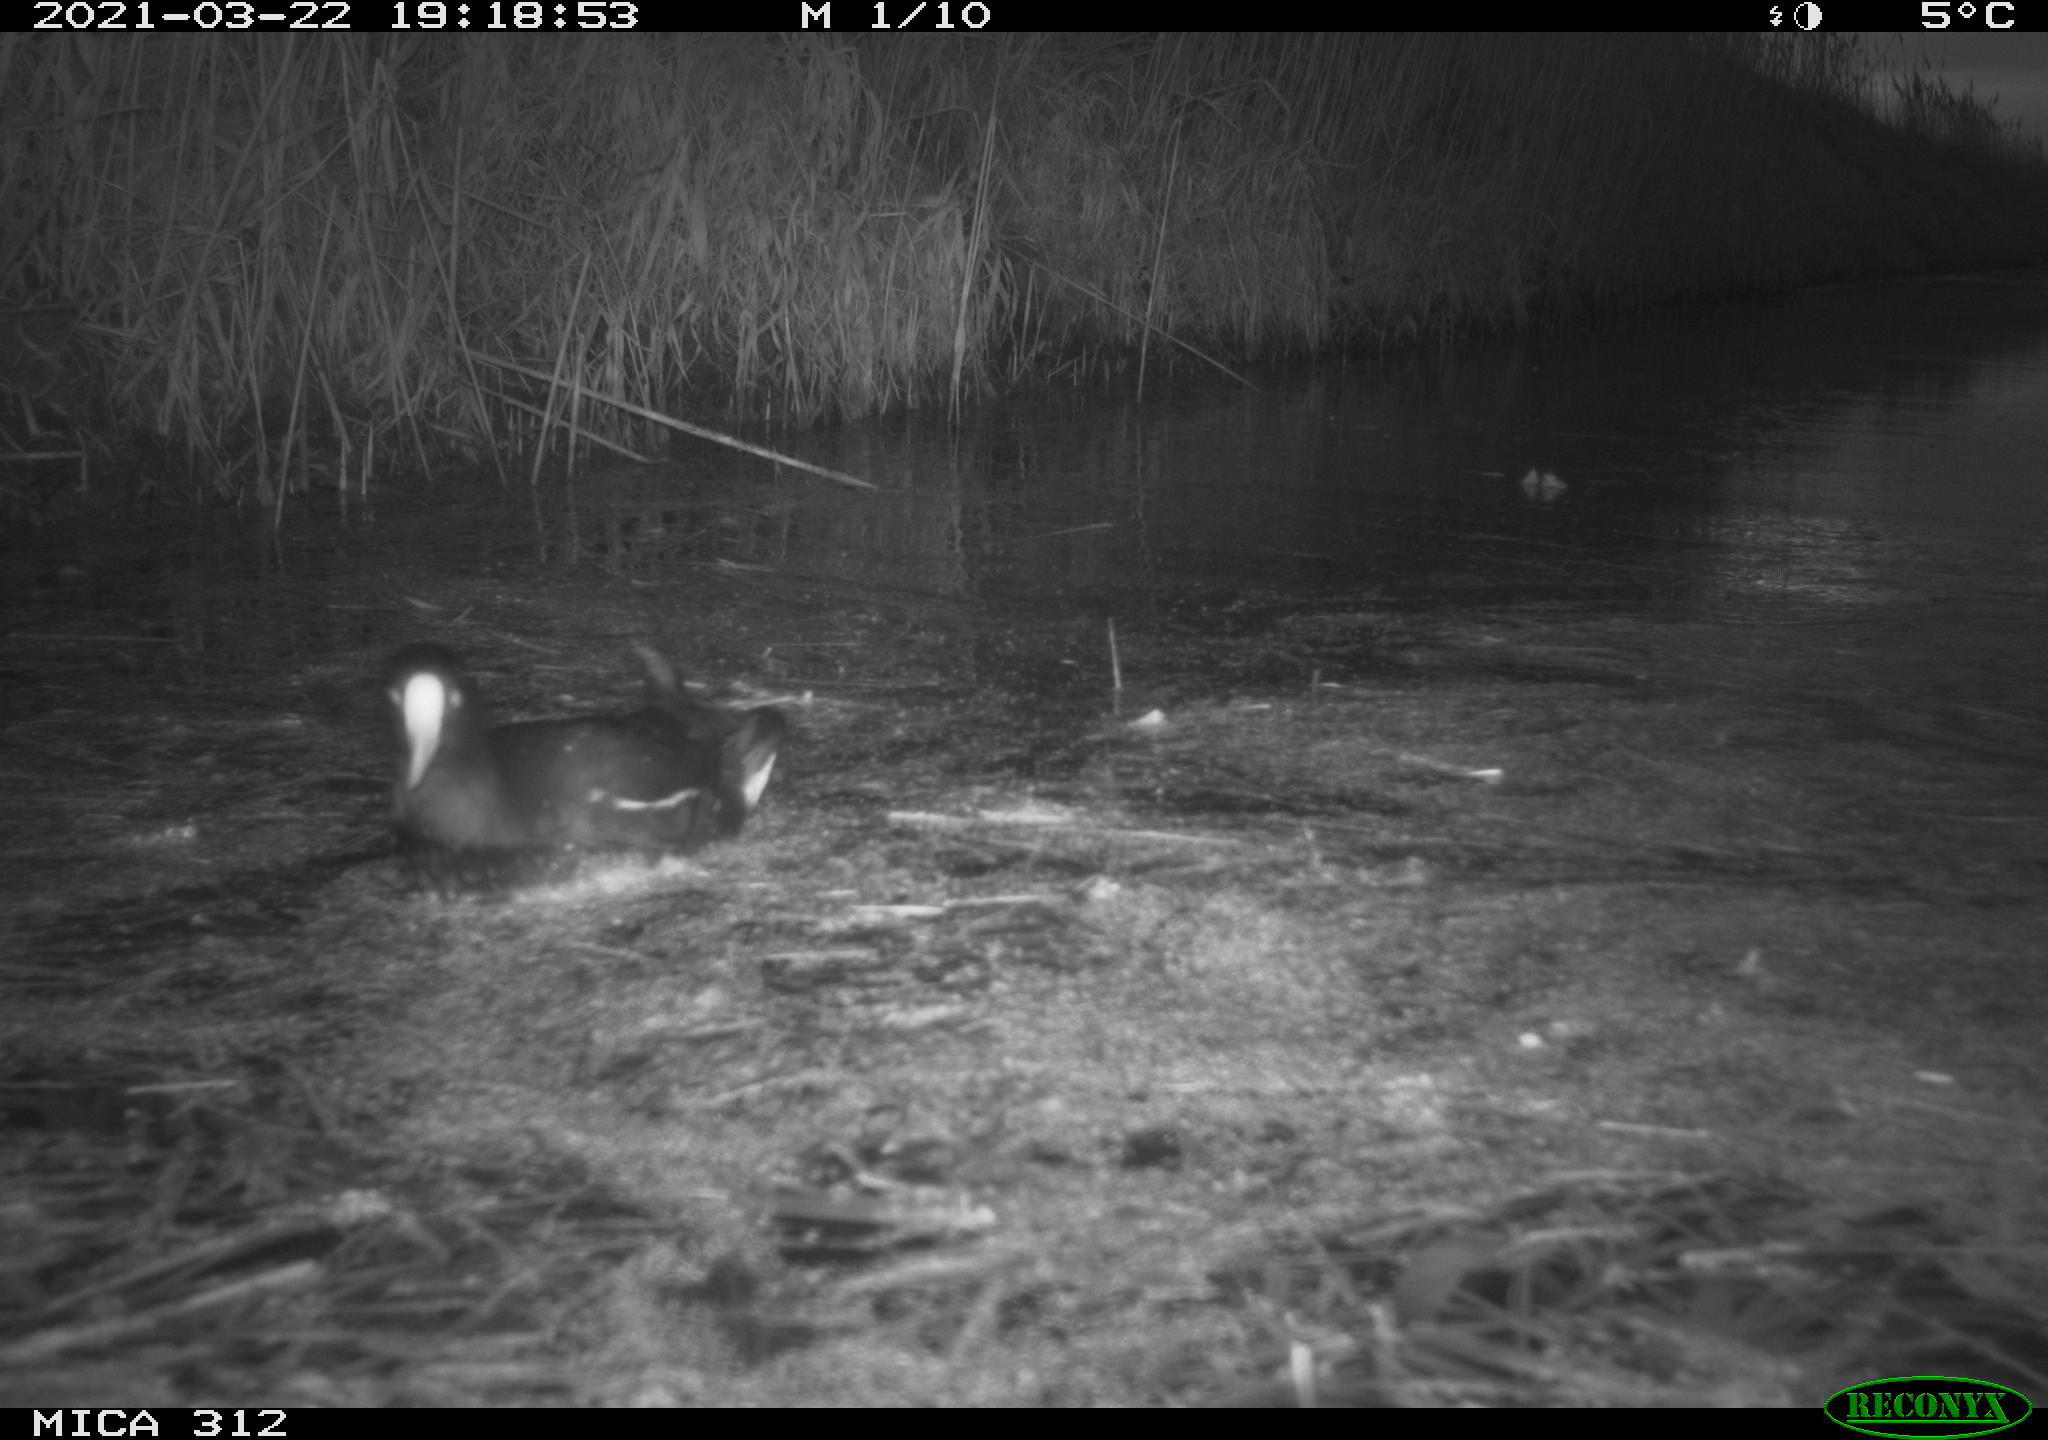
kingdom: Animalia
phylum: Chordata
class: Aves
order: Gruiformes
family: Rallidae
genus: Gallinula
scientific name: Gallinula chloropus
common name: Common moorhen
